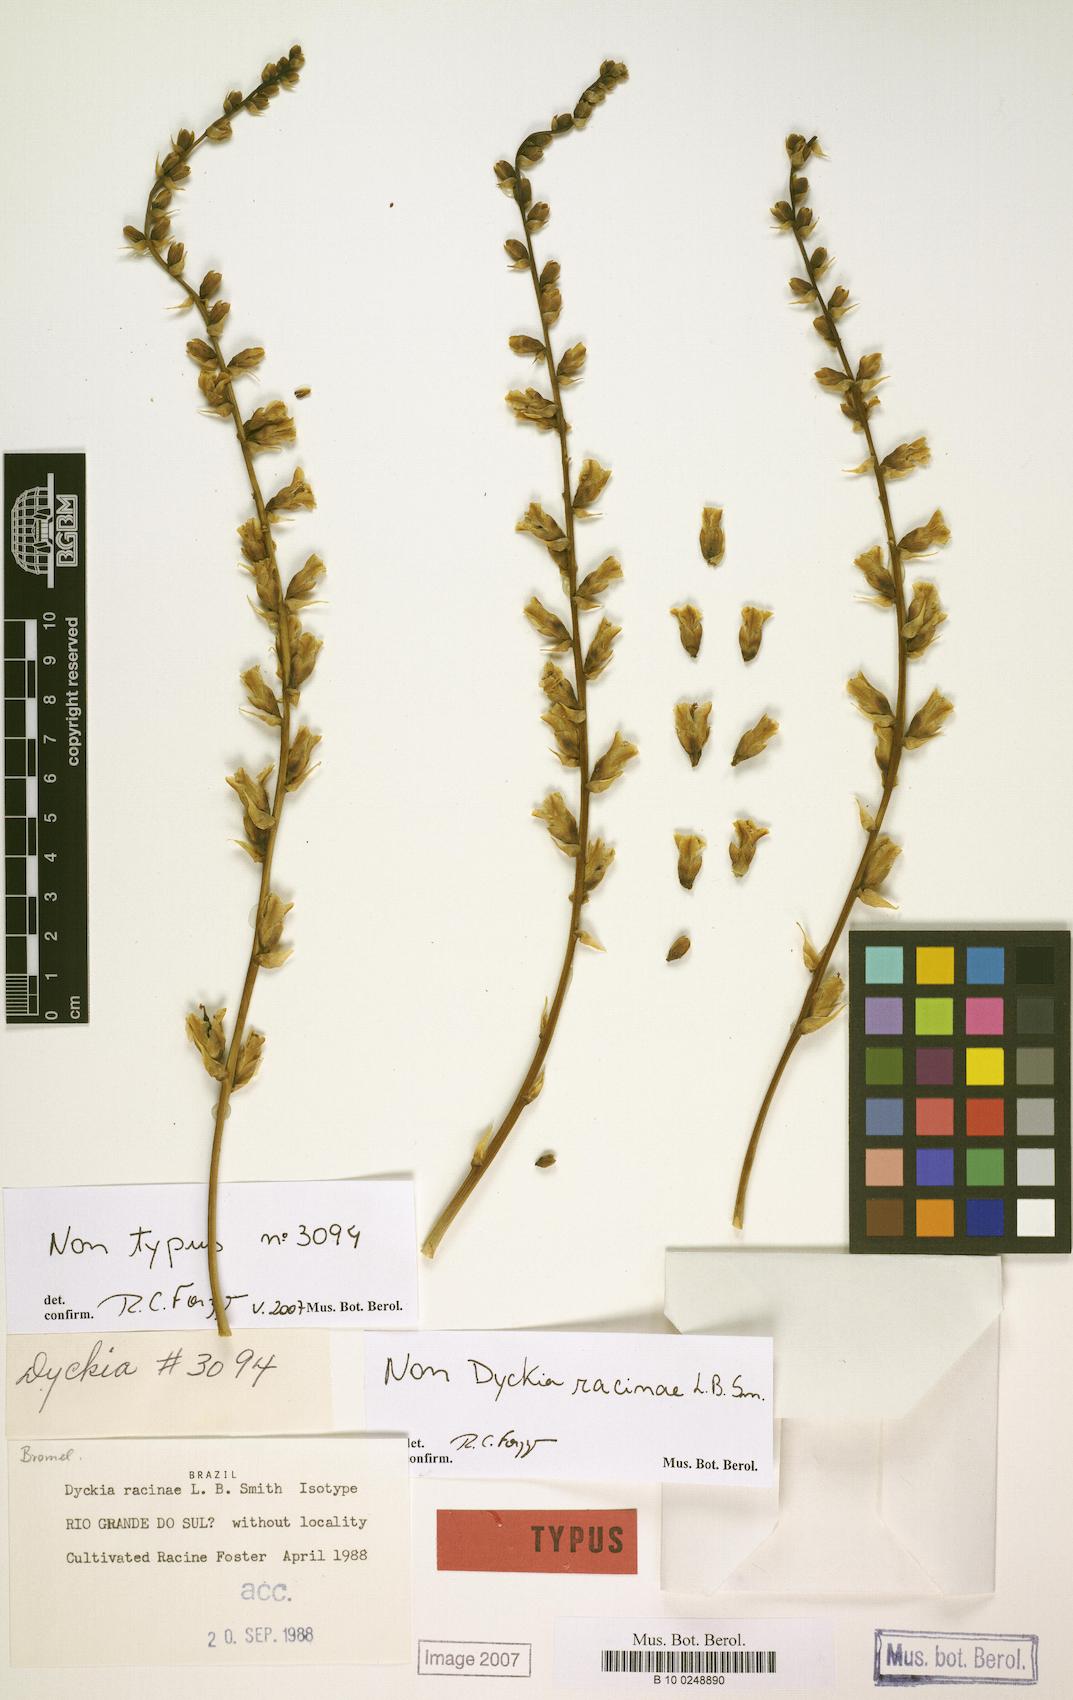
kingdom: Plantae
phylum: Tracheophyta
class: Liliopsida
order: Poales
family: Bromeliaceae
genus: Dyckia
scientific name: Dyckia racinae
